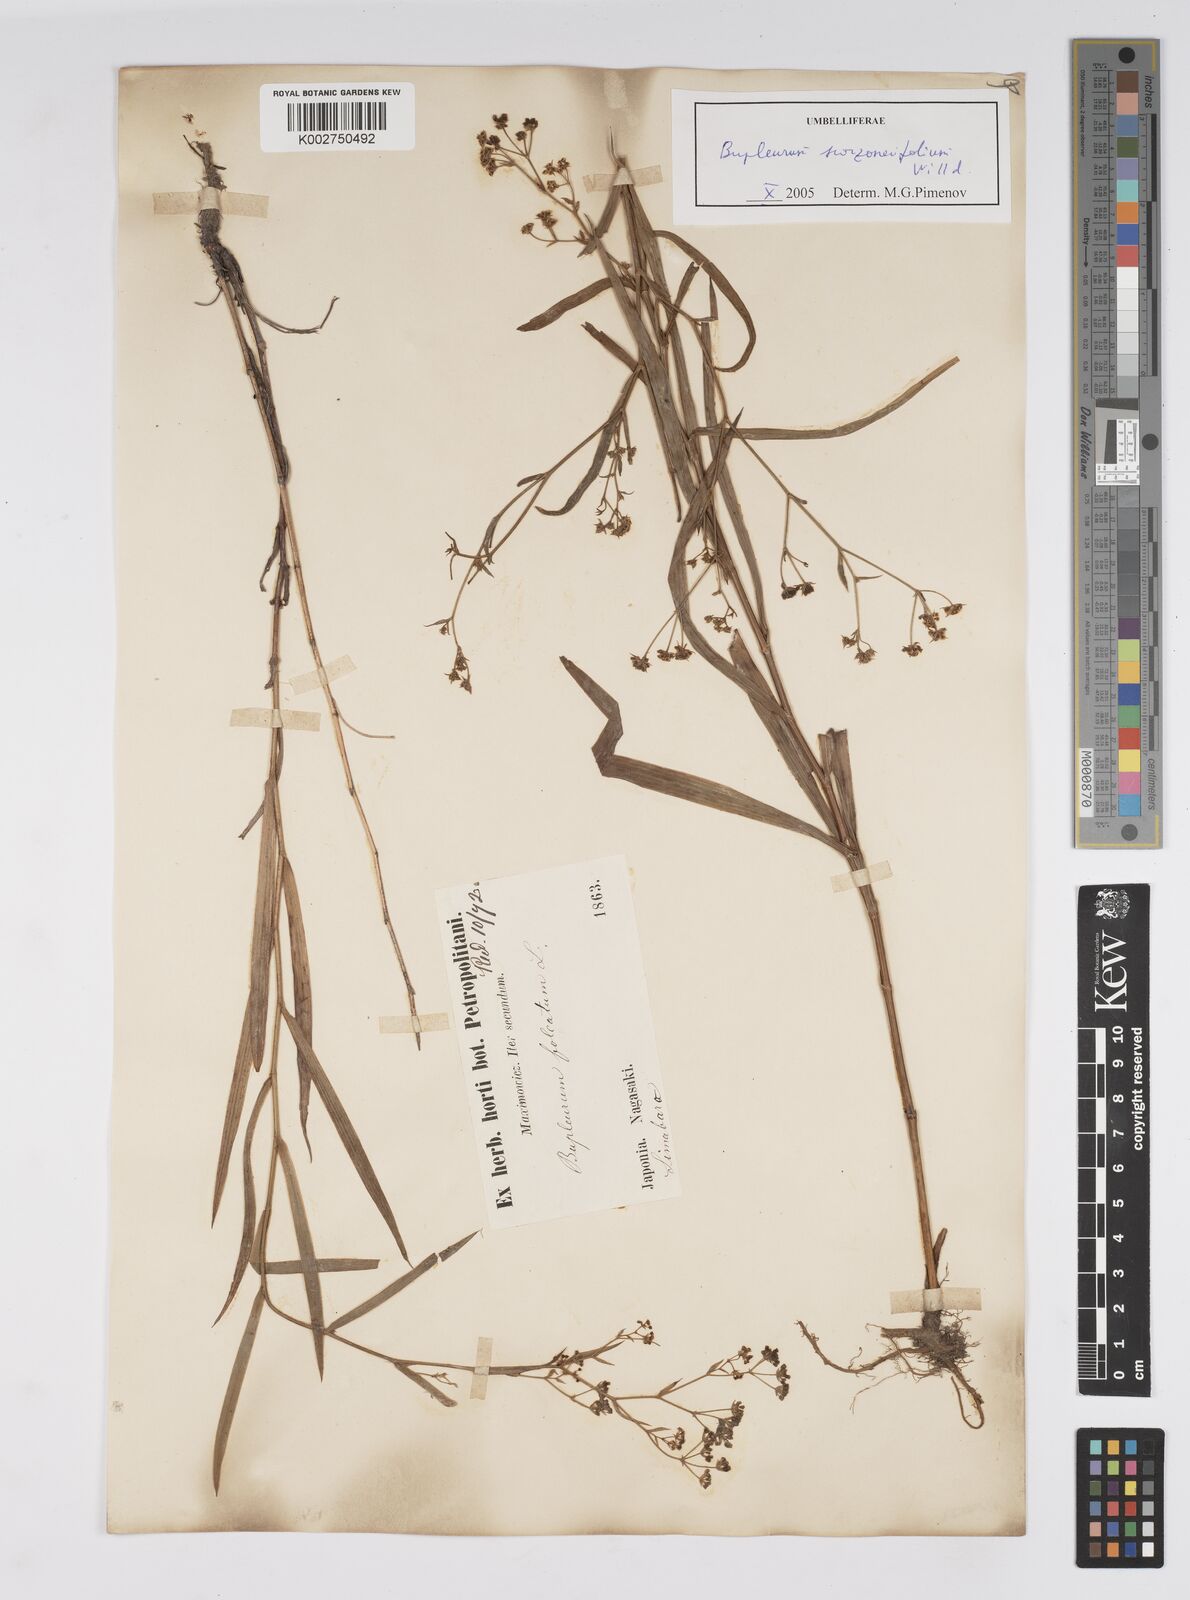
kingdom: Plantae
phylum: Tracheophyta
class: Magnoliopsida
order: Apiales
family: Apiaceae
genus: Bupleurum
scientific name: Bupleurum krylovianum
